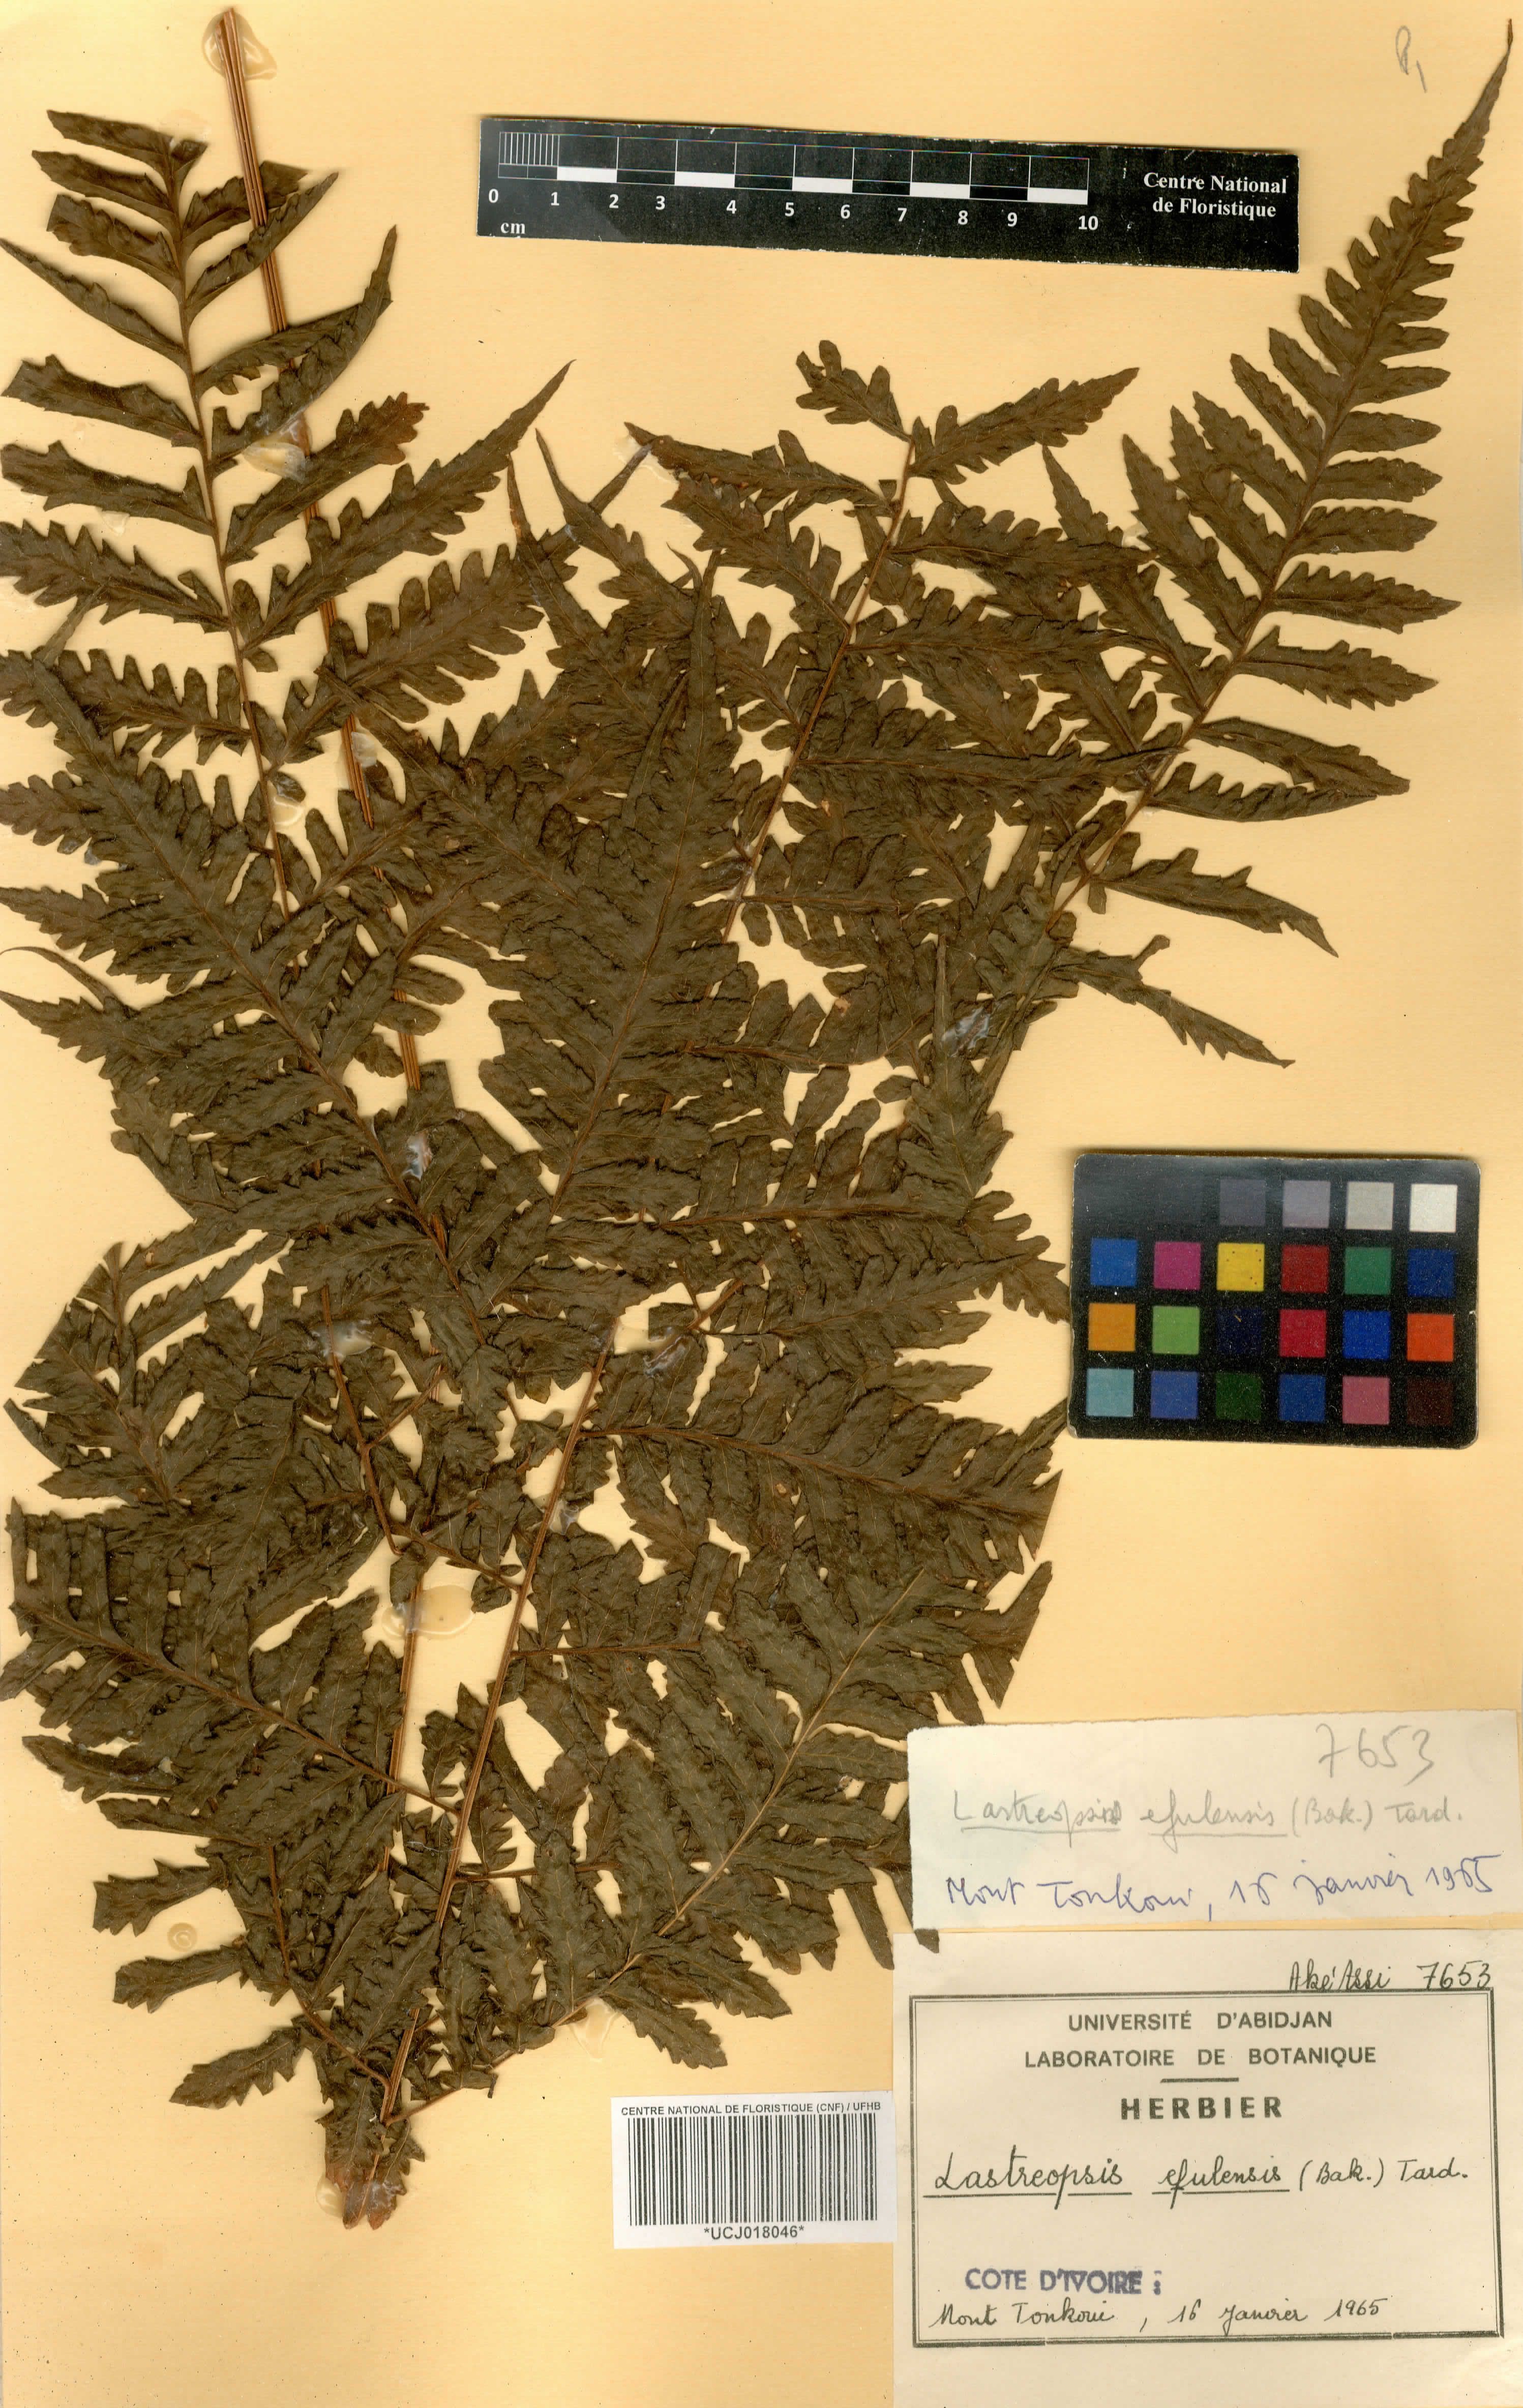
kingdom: Plantae
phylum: Tracheophyta
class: Polypodiopsida
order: Polypodiales
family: Dryopteridaceae
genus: Parapolystichum
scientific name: Parapolystichum currorii
